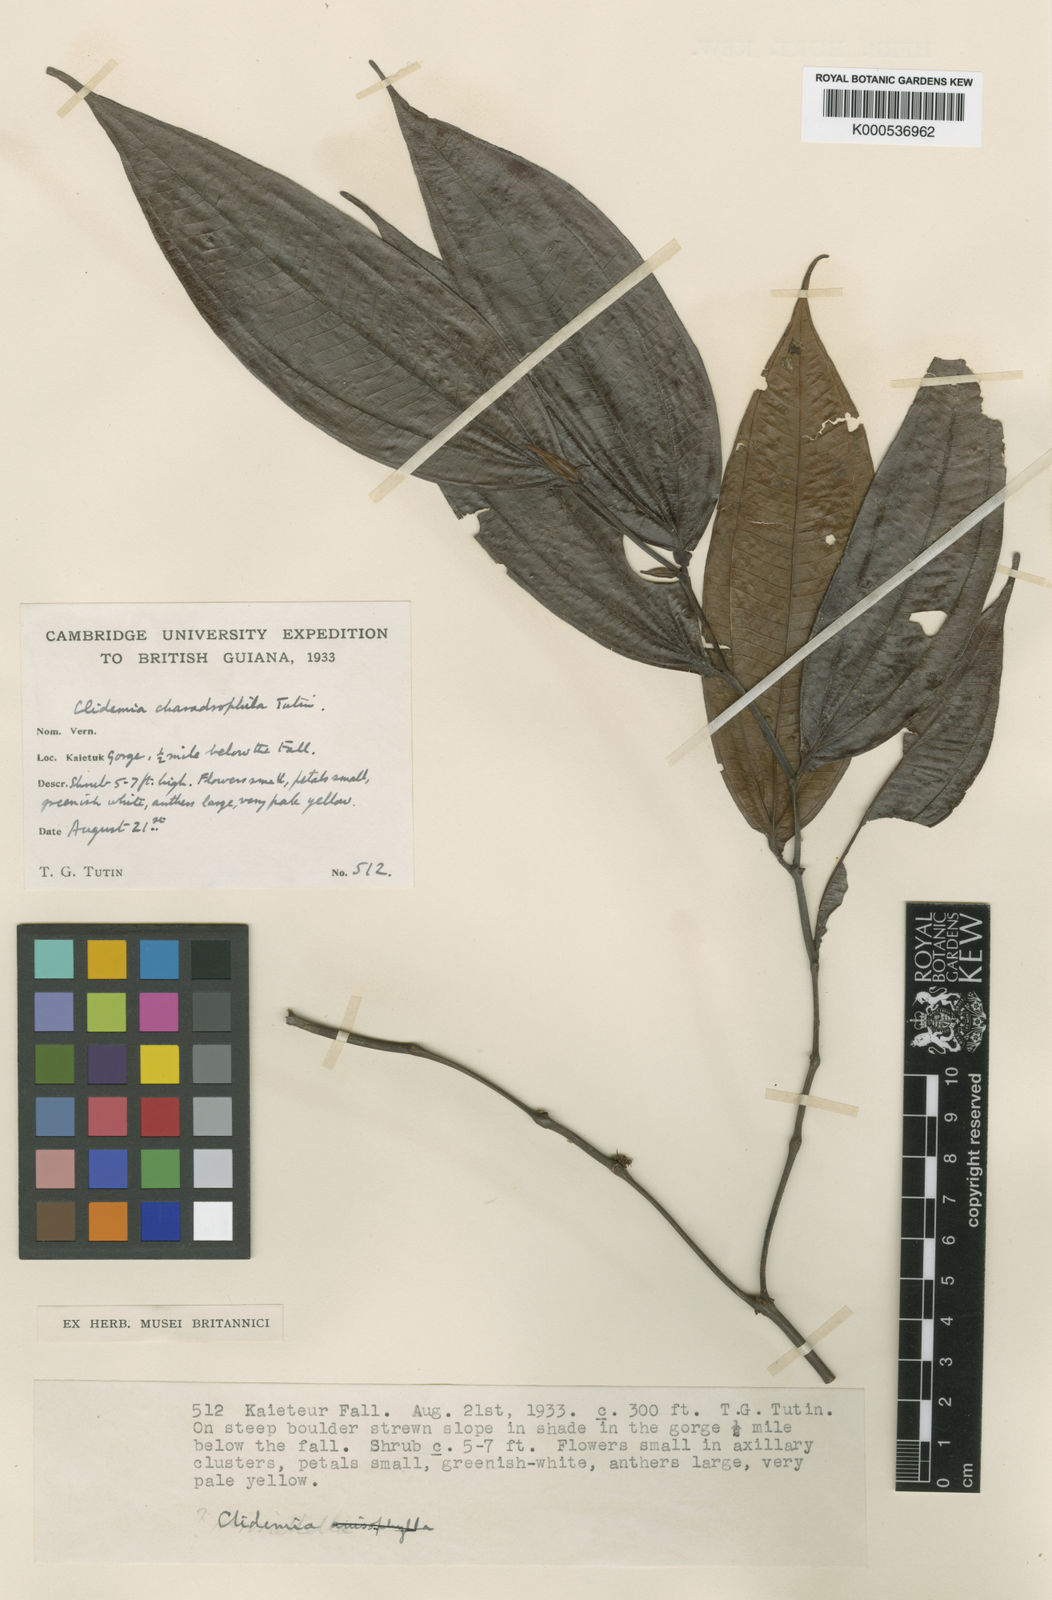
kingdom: Plantae
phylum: Tracheophyta
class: Magnoliopsida
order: Myrtales
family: Melastomataceae
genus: Miconia
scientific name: Miconia charadrophila
